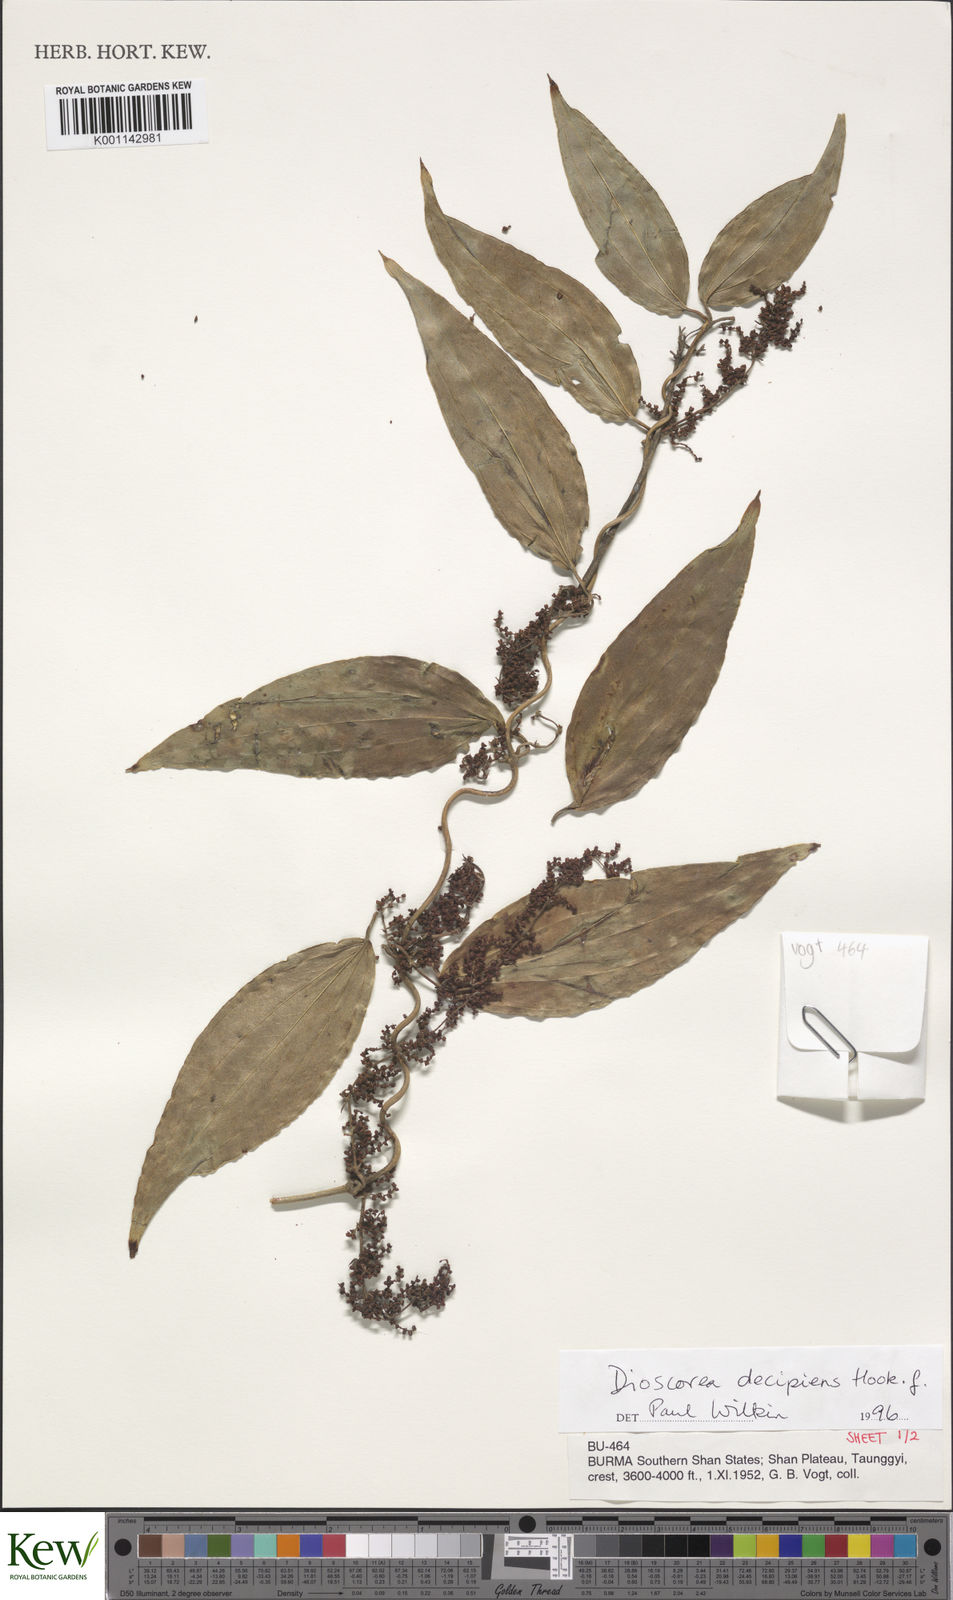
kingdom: Plantae
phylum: Tracheophyta
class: Liliopsida
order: Dioscoreales
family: Dioscoreaceae
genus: Dioscorea
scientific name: Dioscorea decipiens
